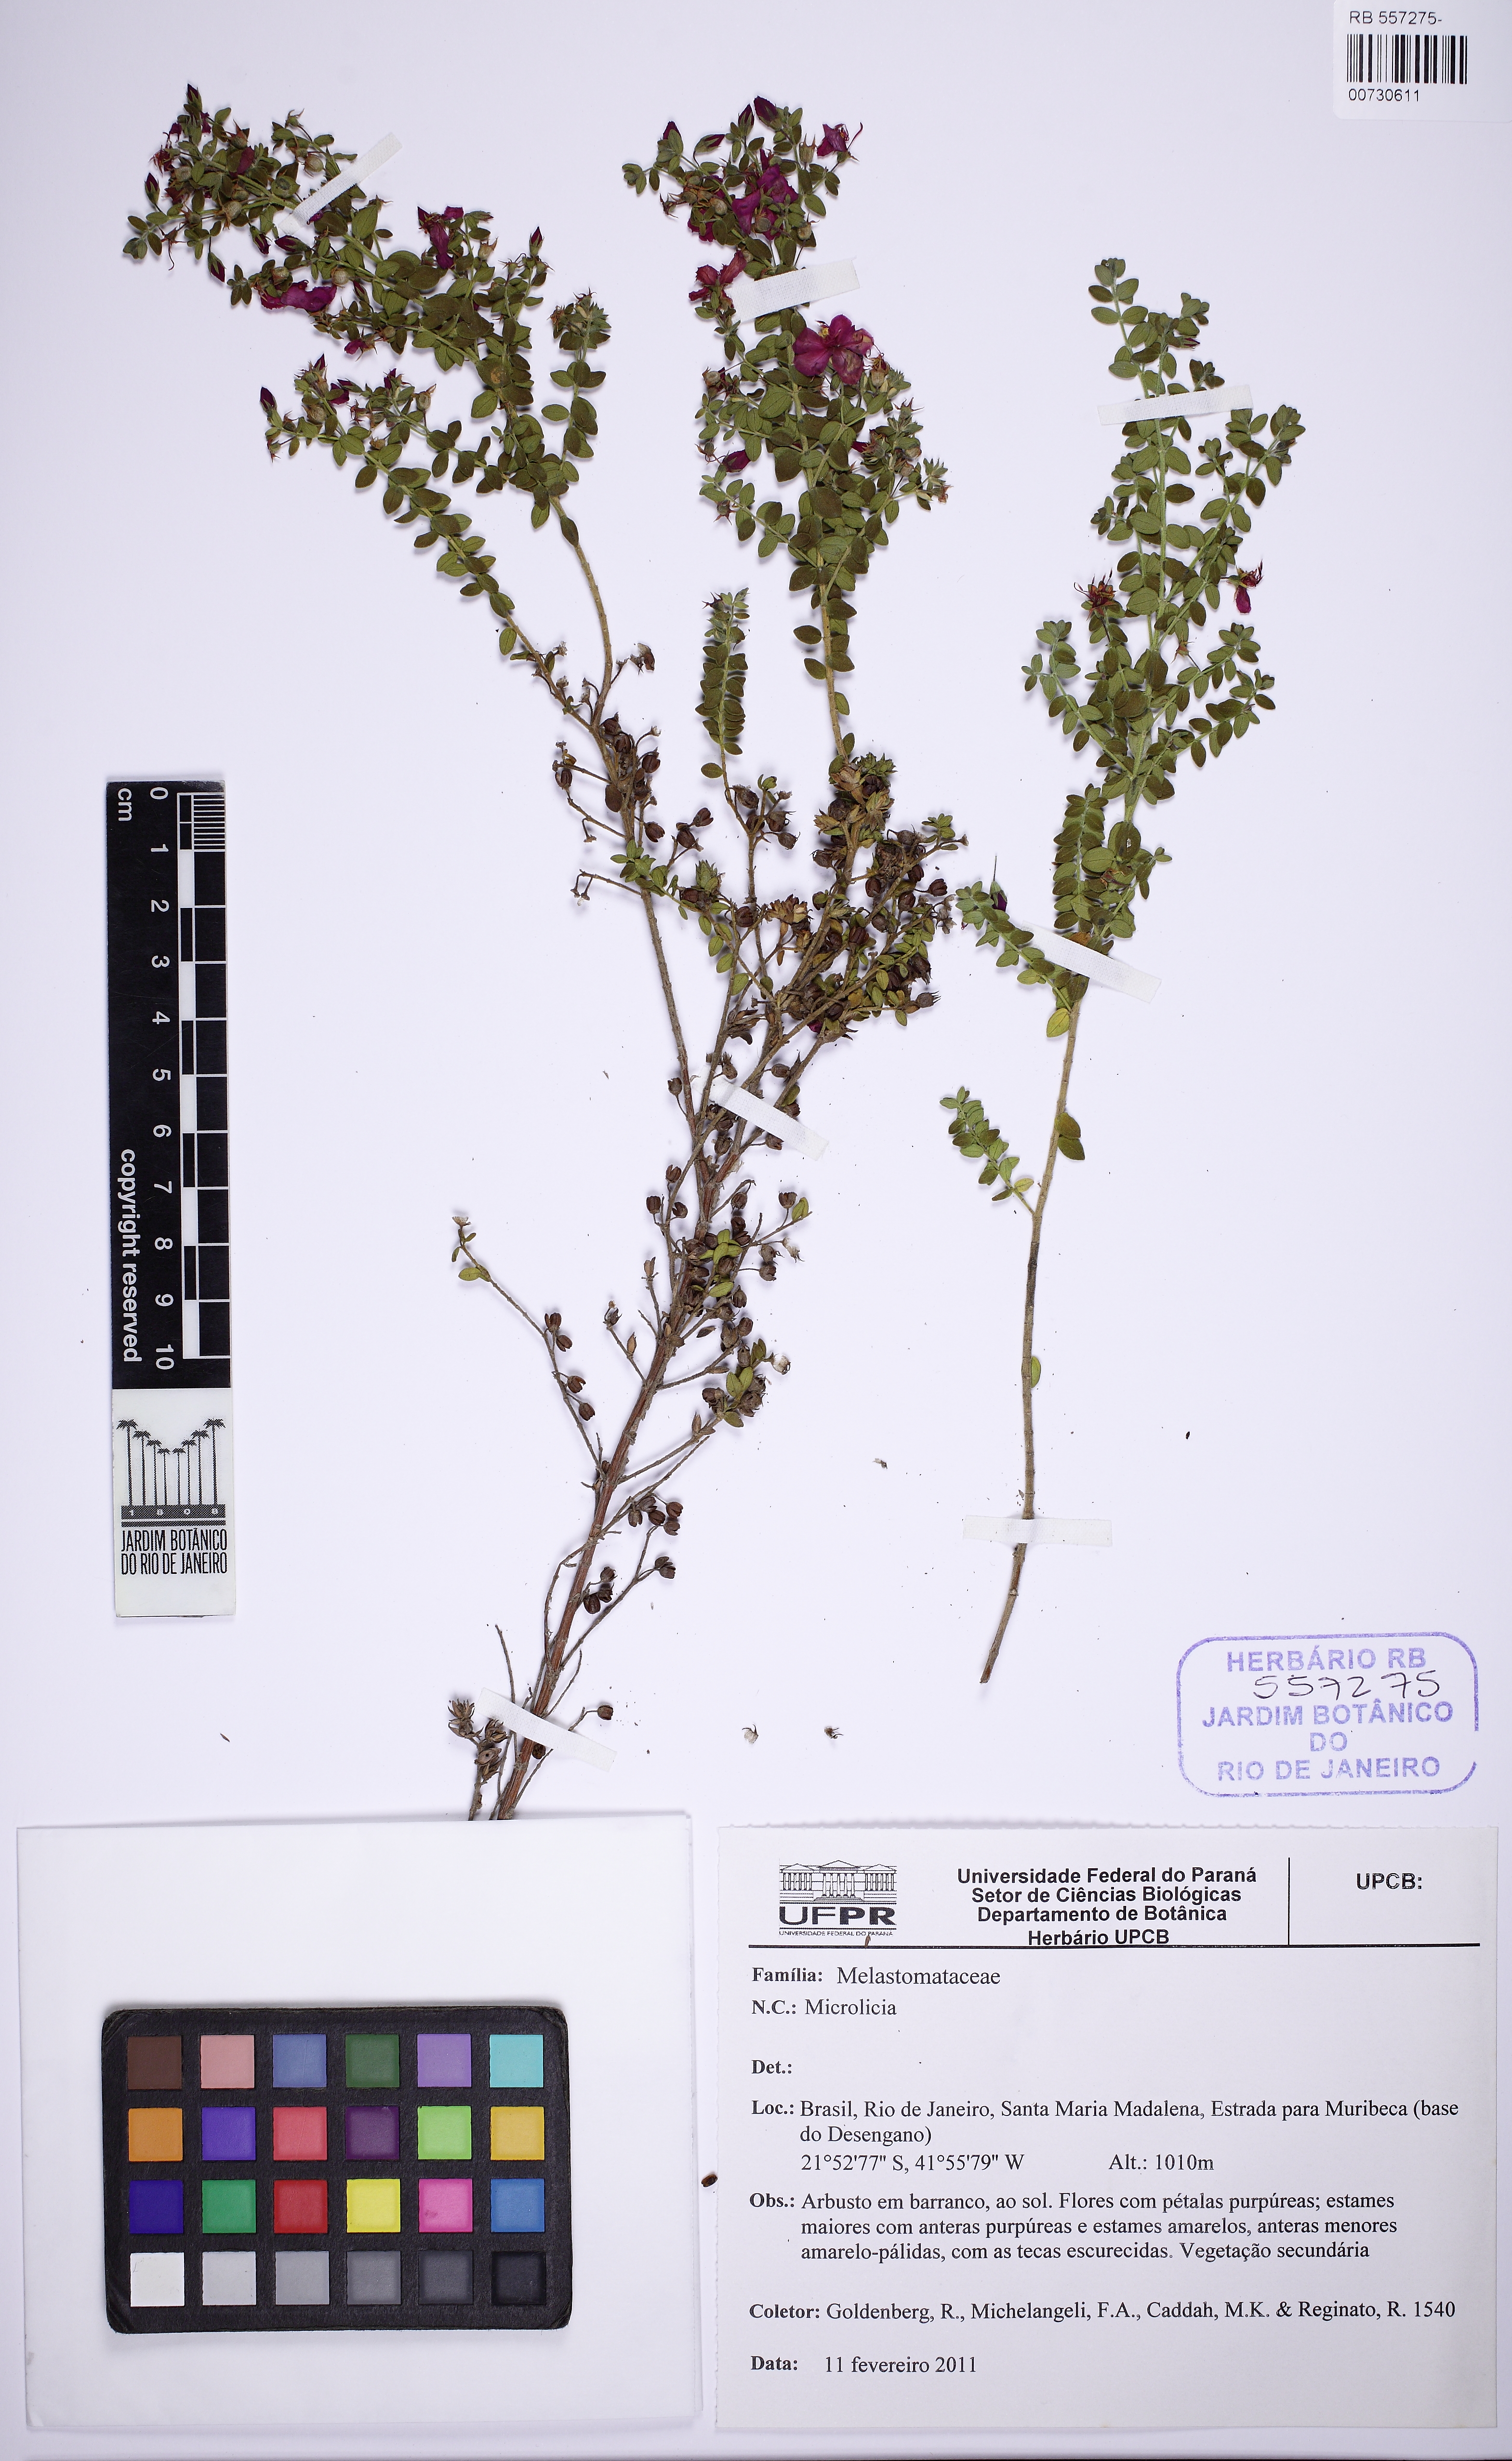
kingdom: Plantae
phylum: Tracheophyta
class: Magnoliopsida
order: Myrtales
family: Melastomataceae
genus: Microlicia
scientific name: Microlicia fulva
